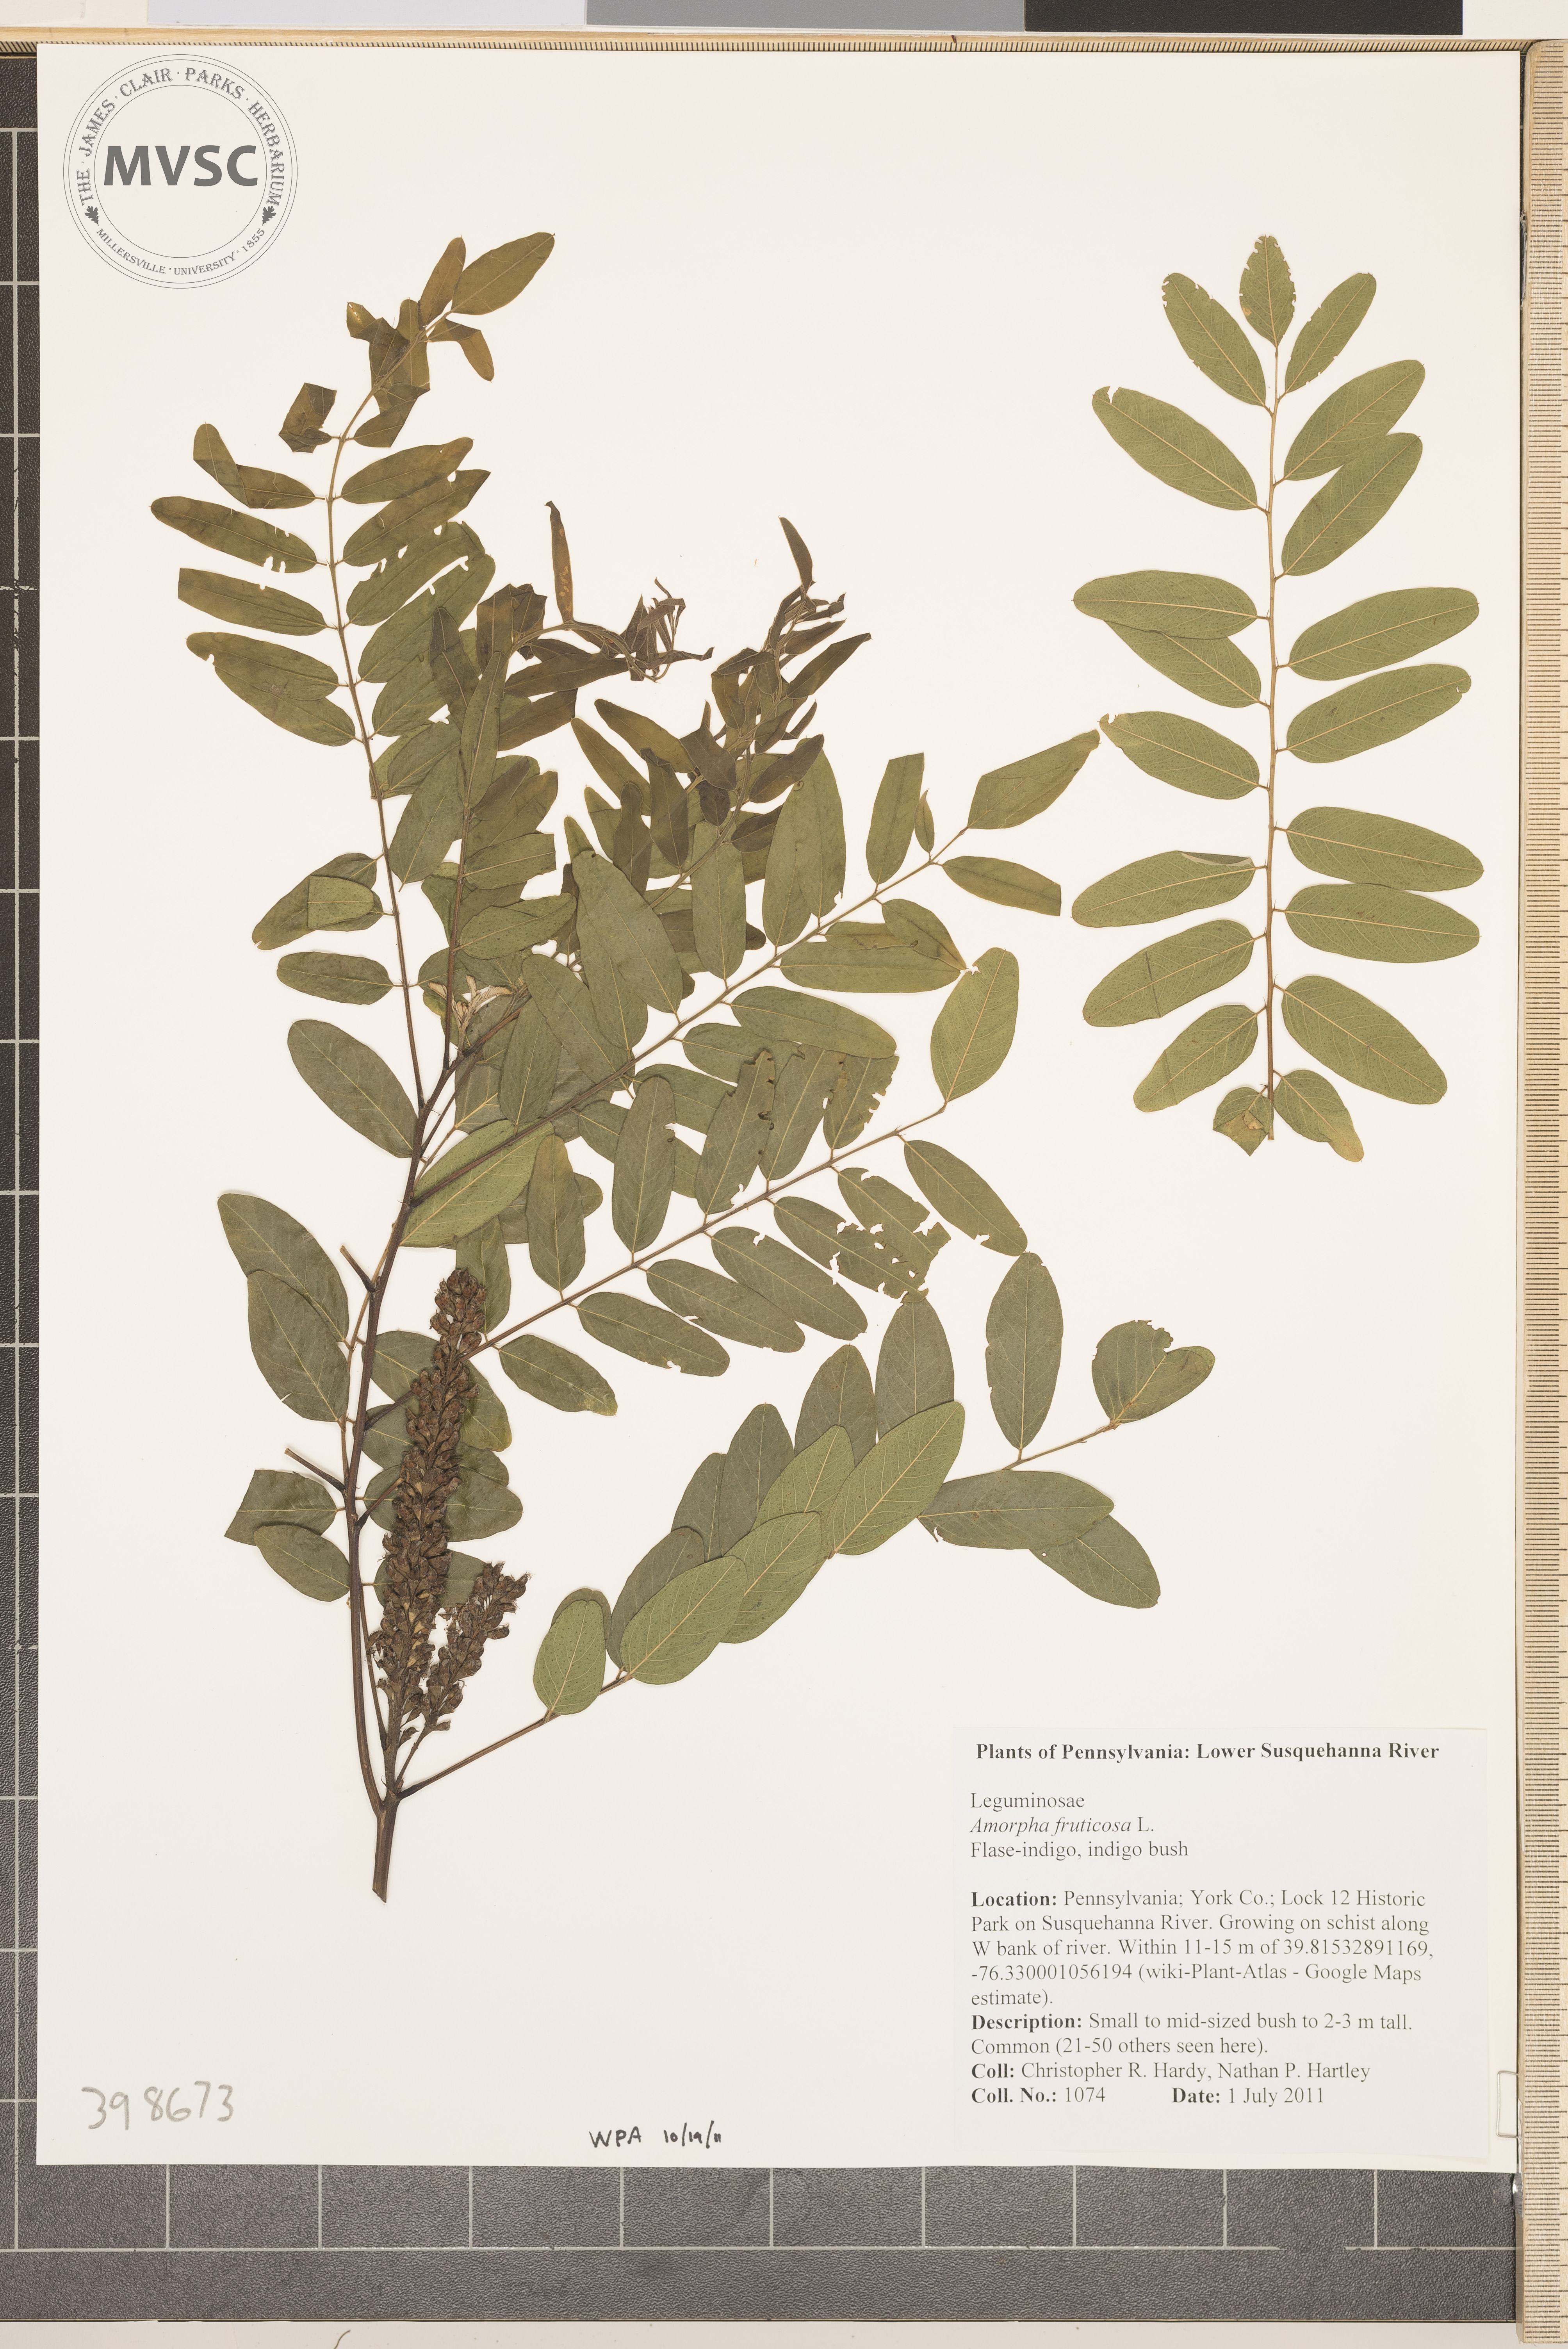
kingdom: Plantae
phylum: Tracheophyta
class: Magnoliopsida
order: Fabales
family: Fabaceae
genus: Amorpha
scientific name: Amorpha fruticosa
